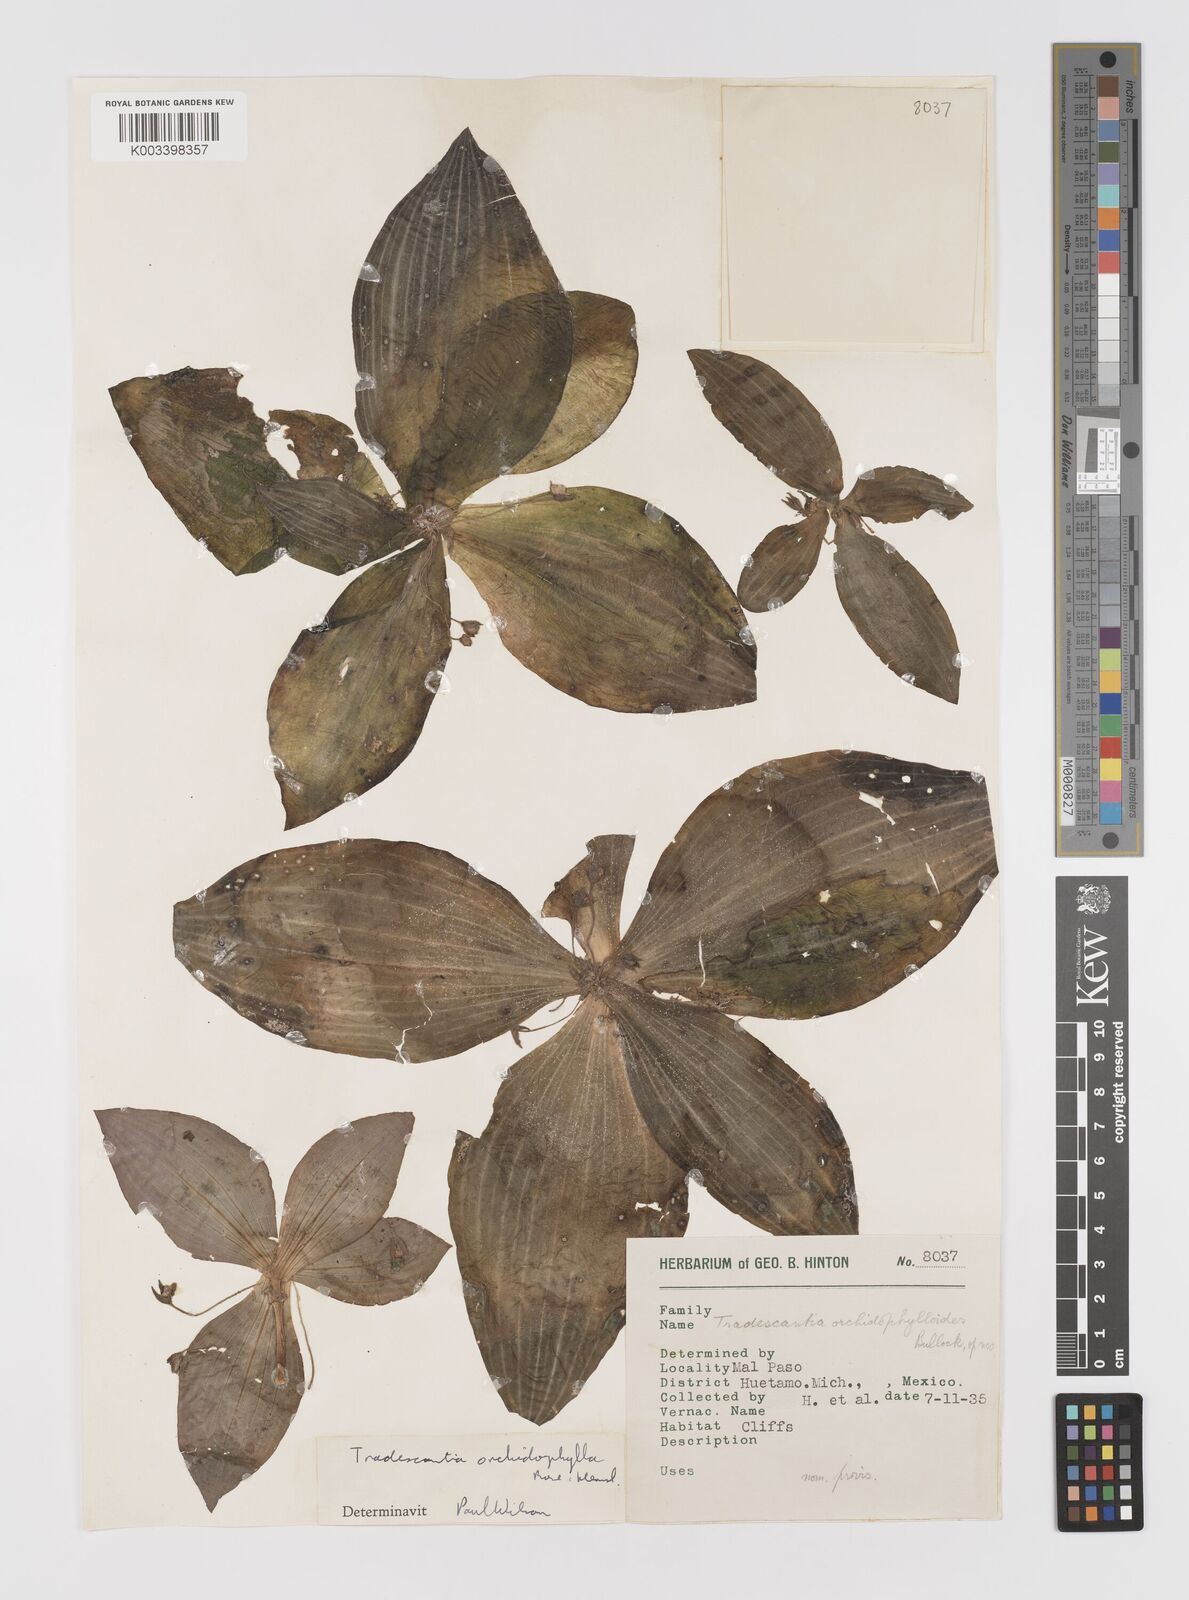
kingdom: Plantae
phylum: Tracheophyta
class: Liliopsida
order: Commelinales
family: Commelinaceae
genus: Tradescantia
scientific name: Tradescantia orchidophylla
